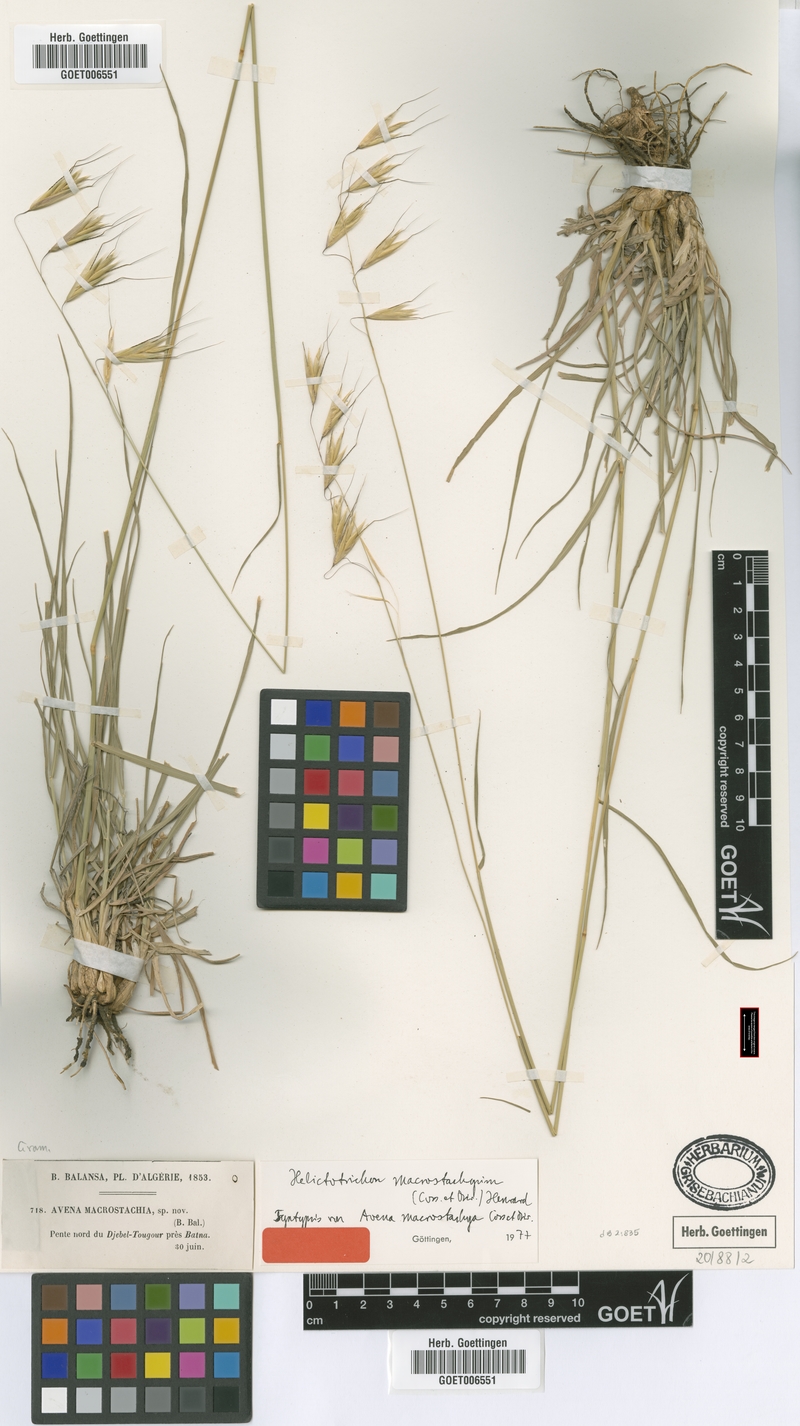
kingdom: Plantae
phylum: Tracheophyta
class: Liliopsida
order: Poales
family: Poaceae
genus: Helictotrichon
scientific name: Helictotrichon macrostachyum
